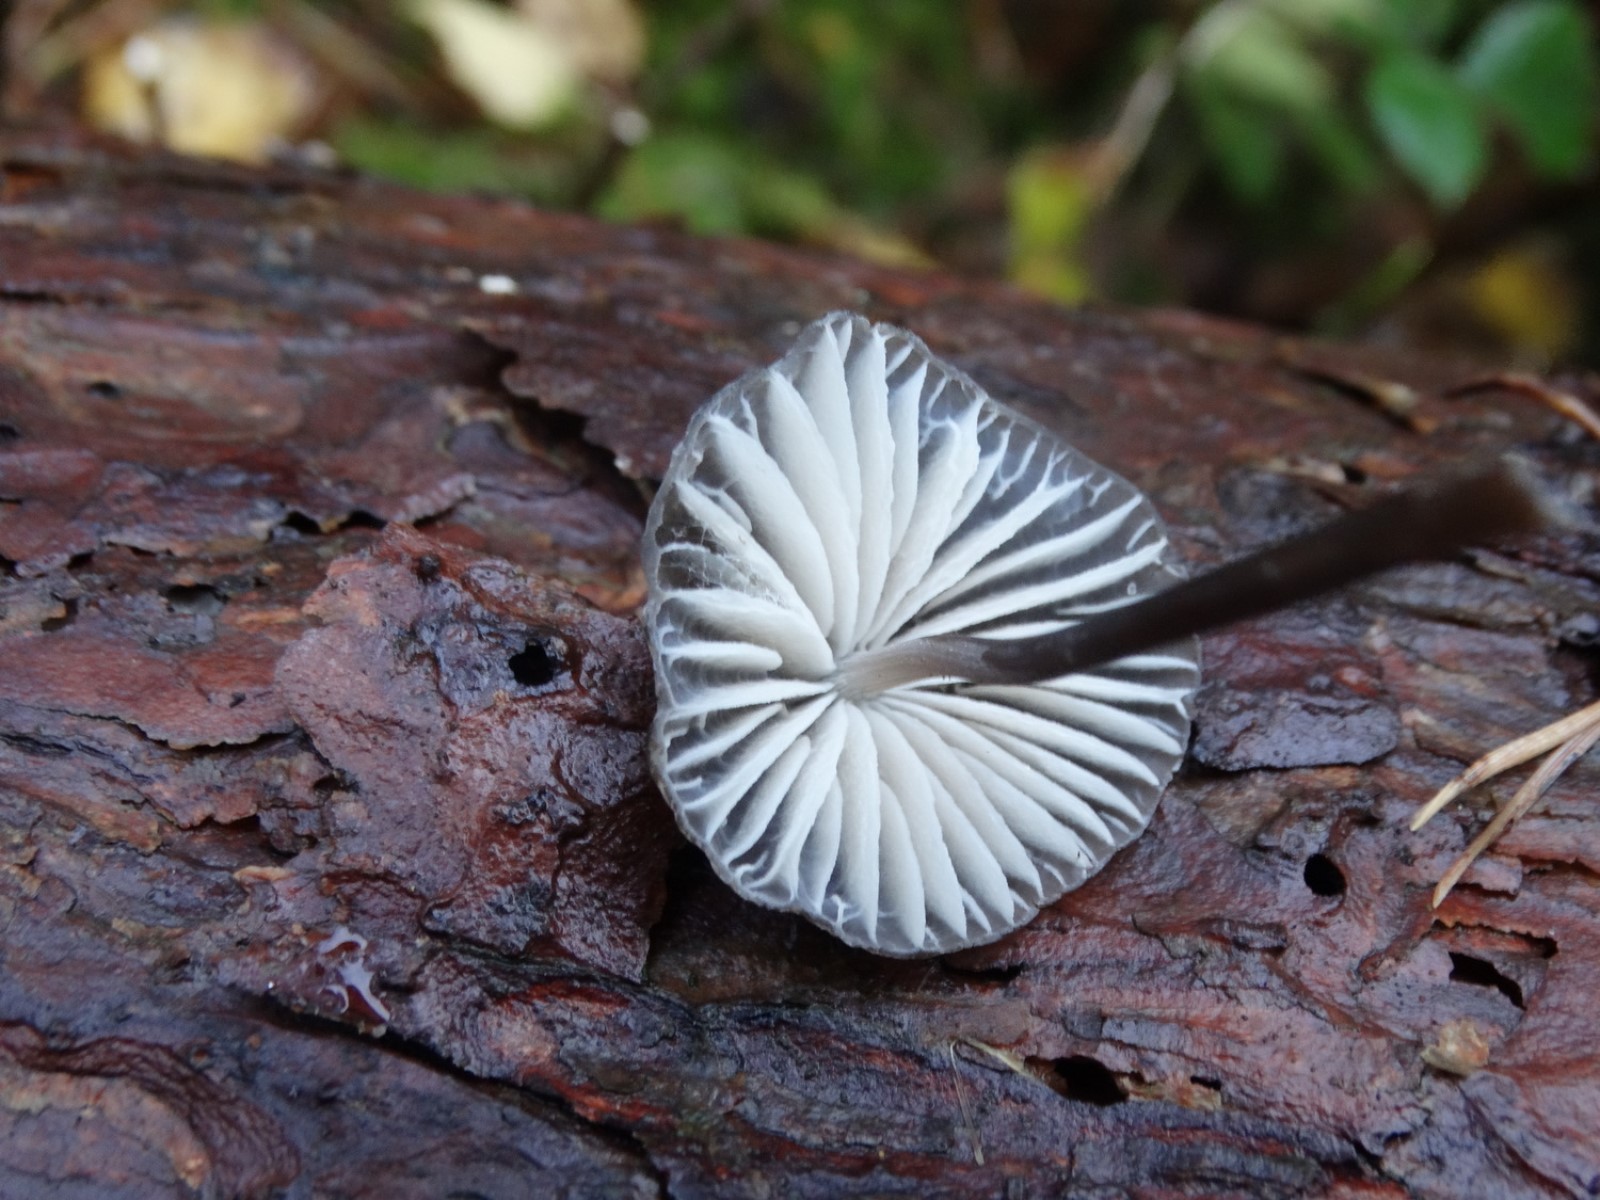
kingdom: Fungi
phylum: Basidiomycota
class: Agaricomycetes
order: Agaricales
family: Mycenaceae
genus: Mycena
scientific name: Mycena galopus
